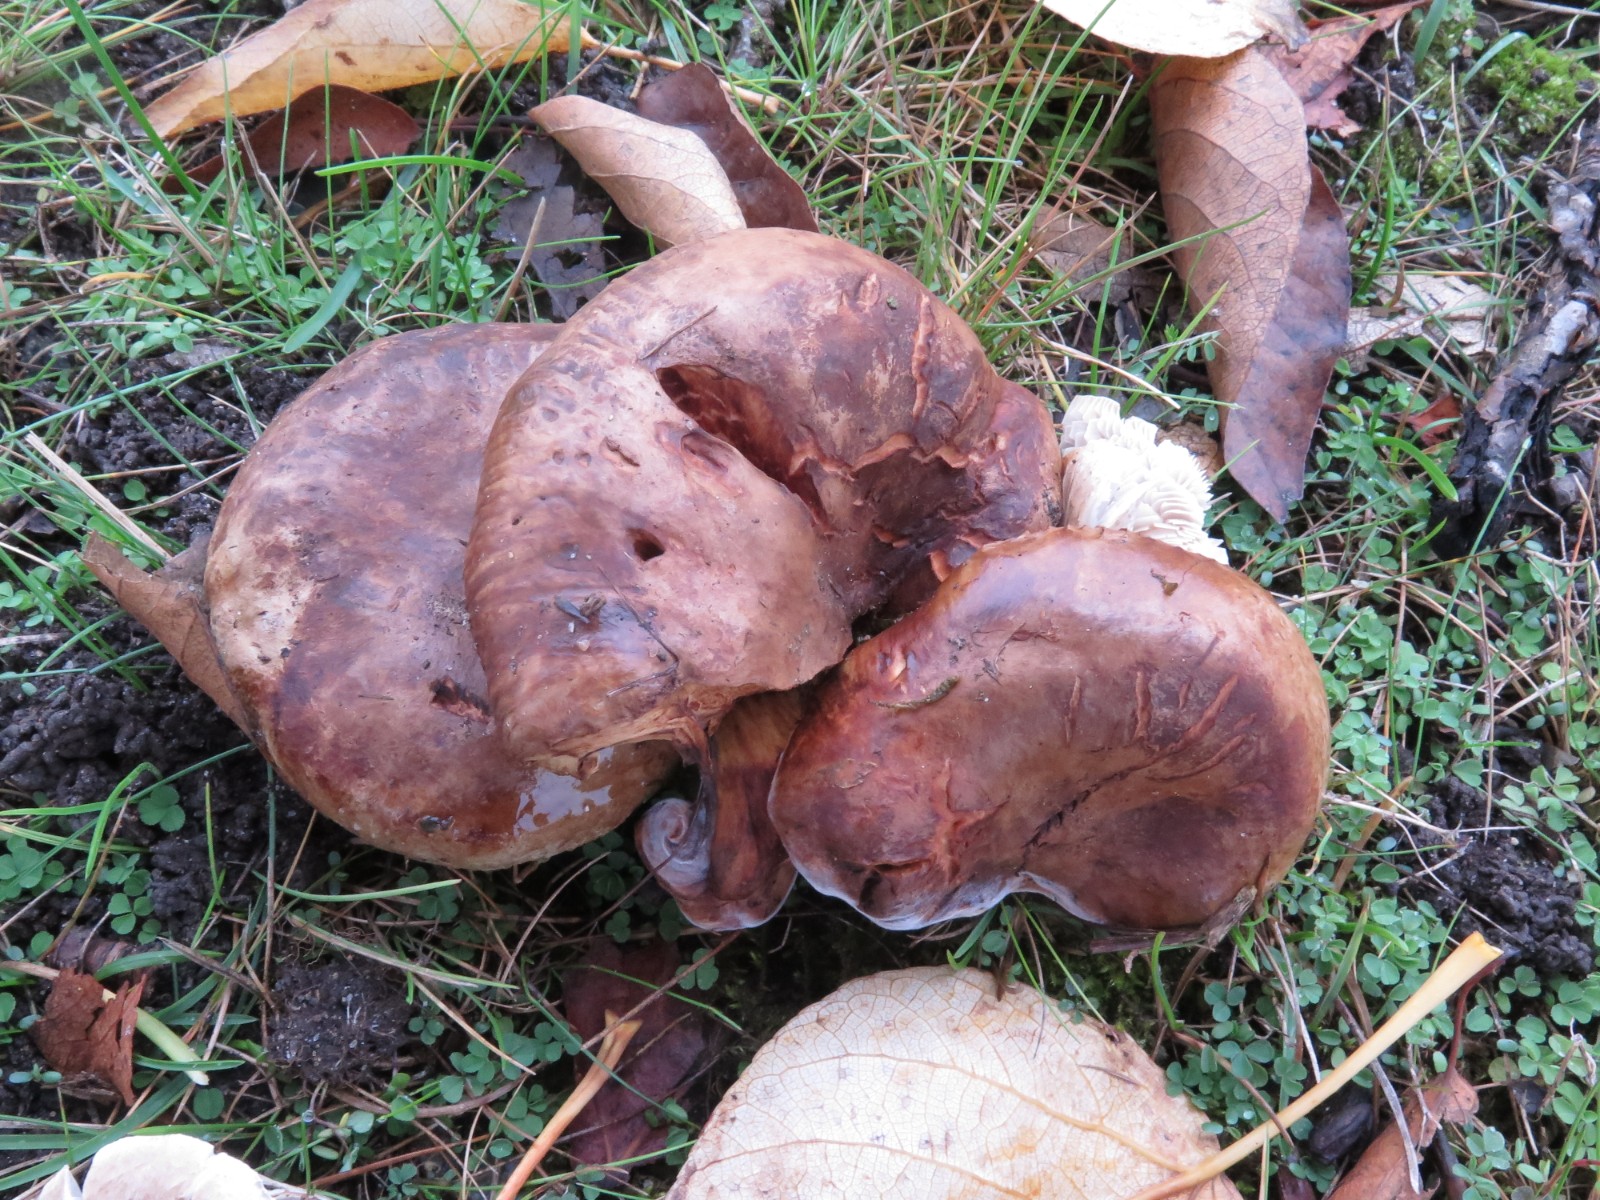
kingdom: Fungi
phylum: Basidiomycota
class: Agaricomycetes
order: Boletales
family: Paxillaceae
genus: Paxillus
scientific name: Paxillus obscurisporus
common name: mahognisporet netbladhat
